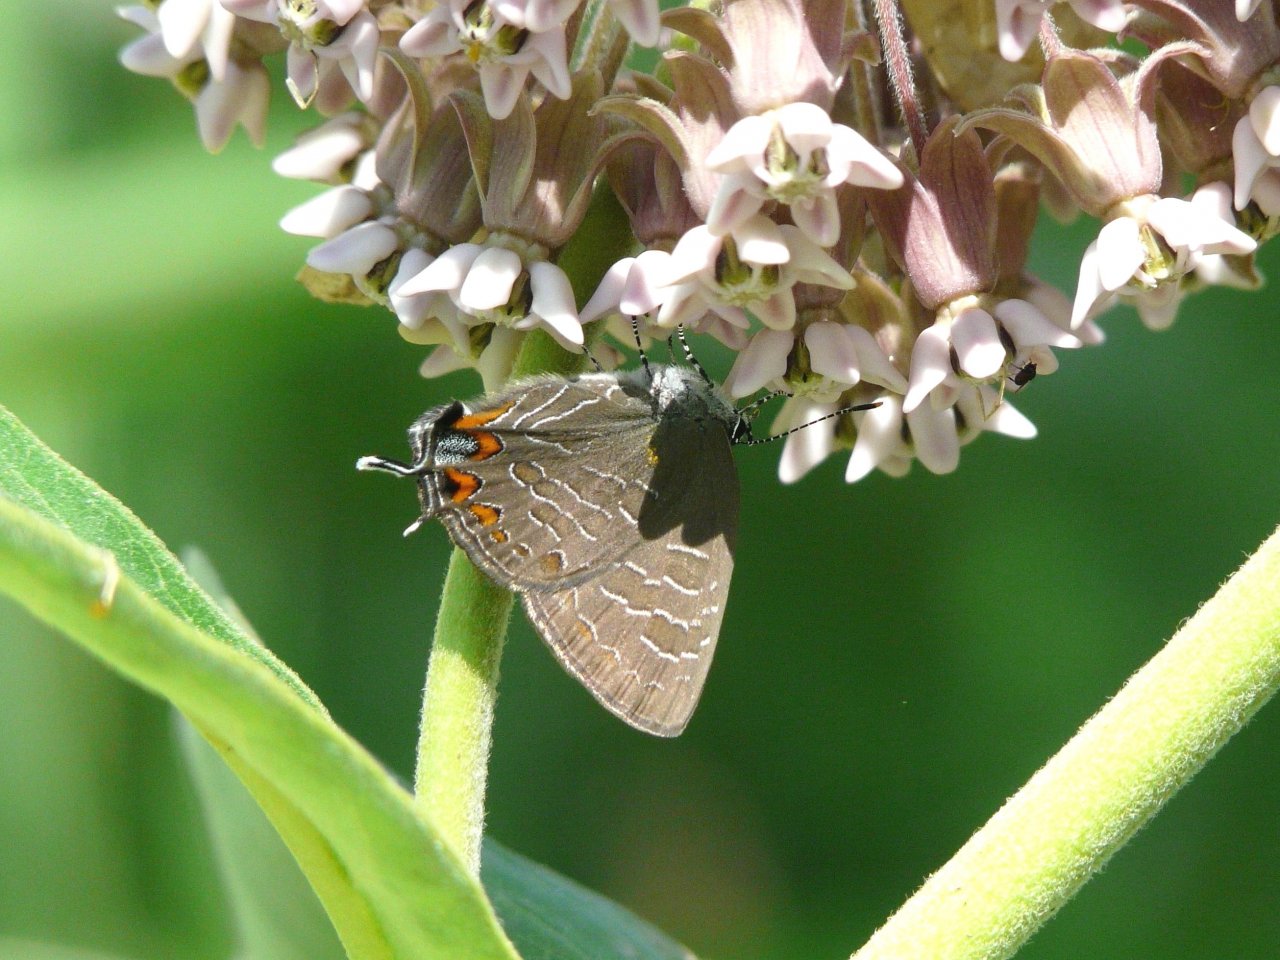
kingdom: Animalia
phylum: Arthropoda
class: Insecta
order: Lepidoptera
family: Lycaenidae
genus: Satyrium
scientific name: Satyrium liparops
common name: Striped Hairstreak
